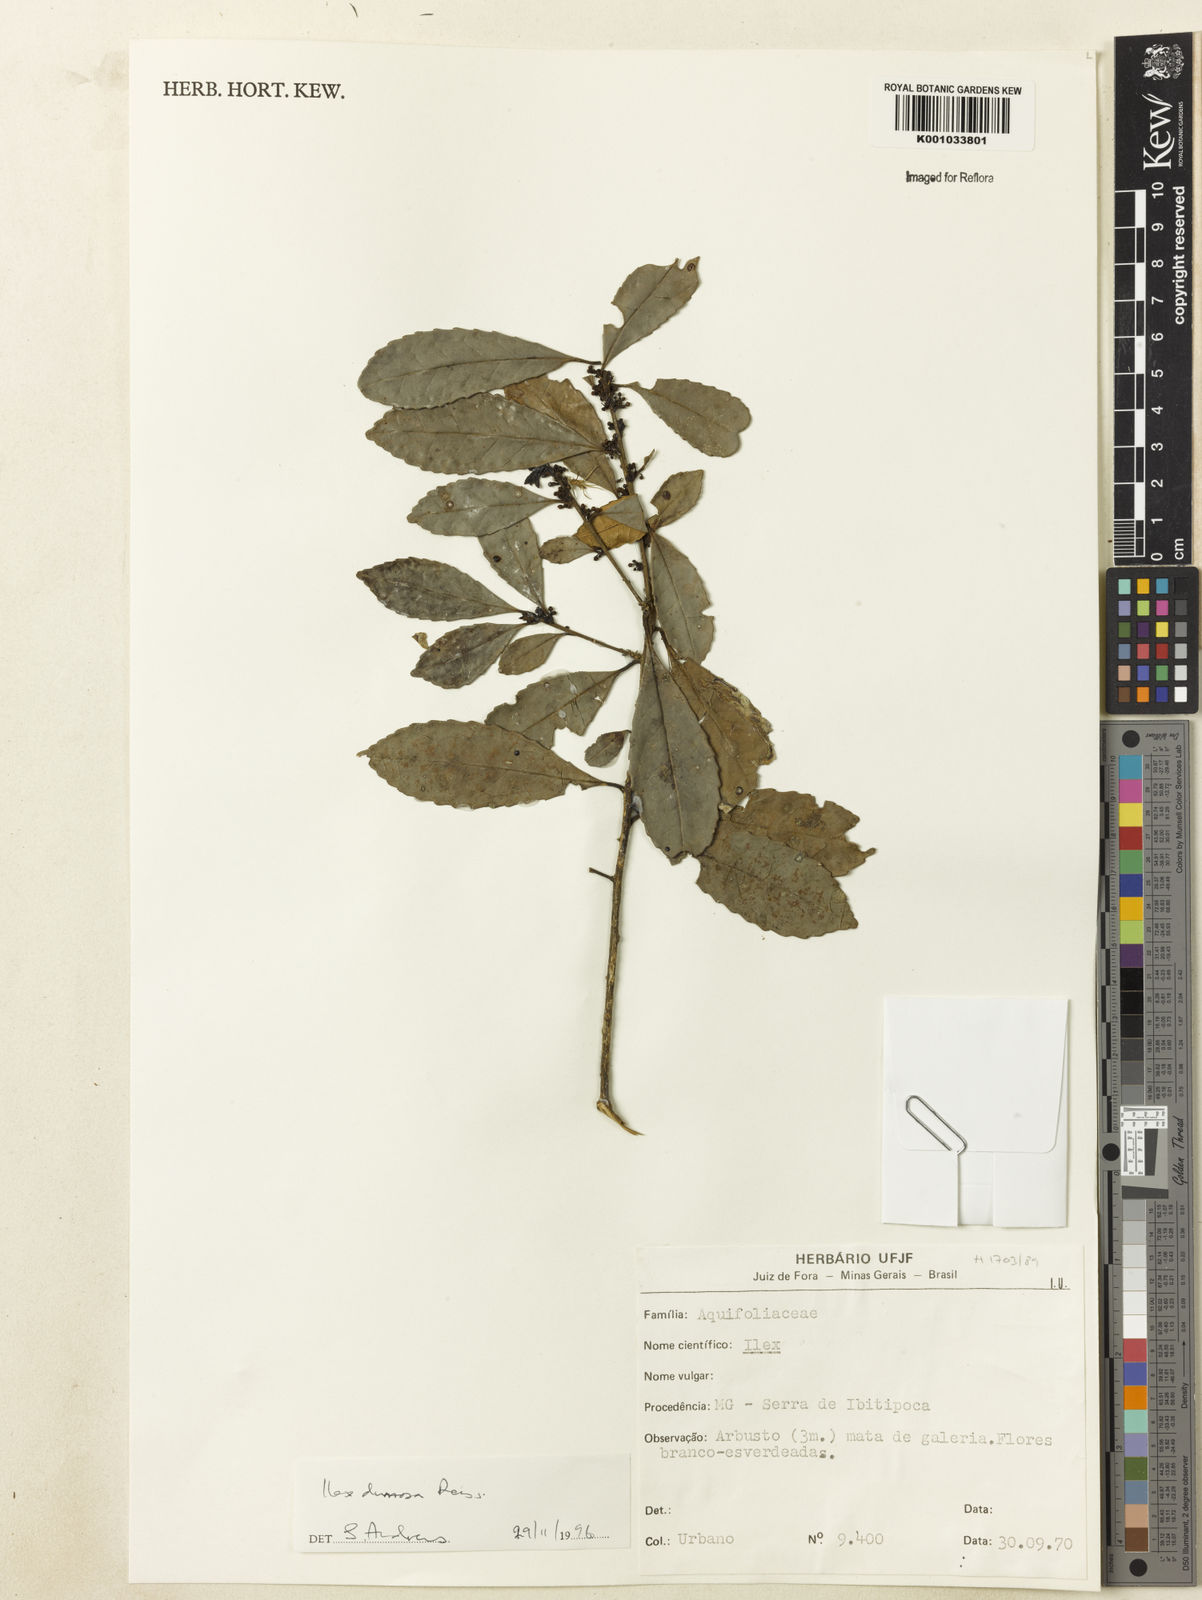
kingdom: Plantae
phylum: Tracheophyta
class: Magnoliopsida
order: Aquifoliales
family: Aquifoliaceae
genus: Ilex
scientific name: Ilex dumosa
